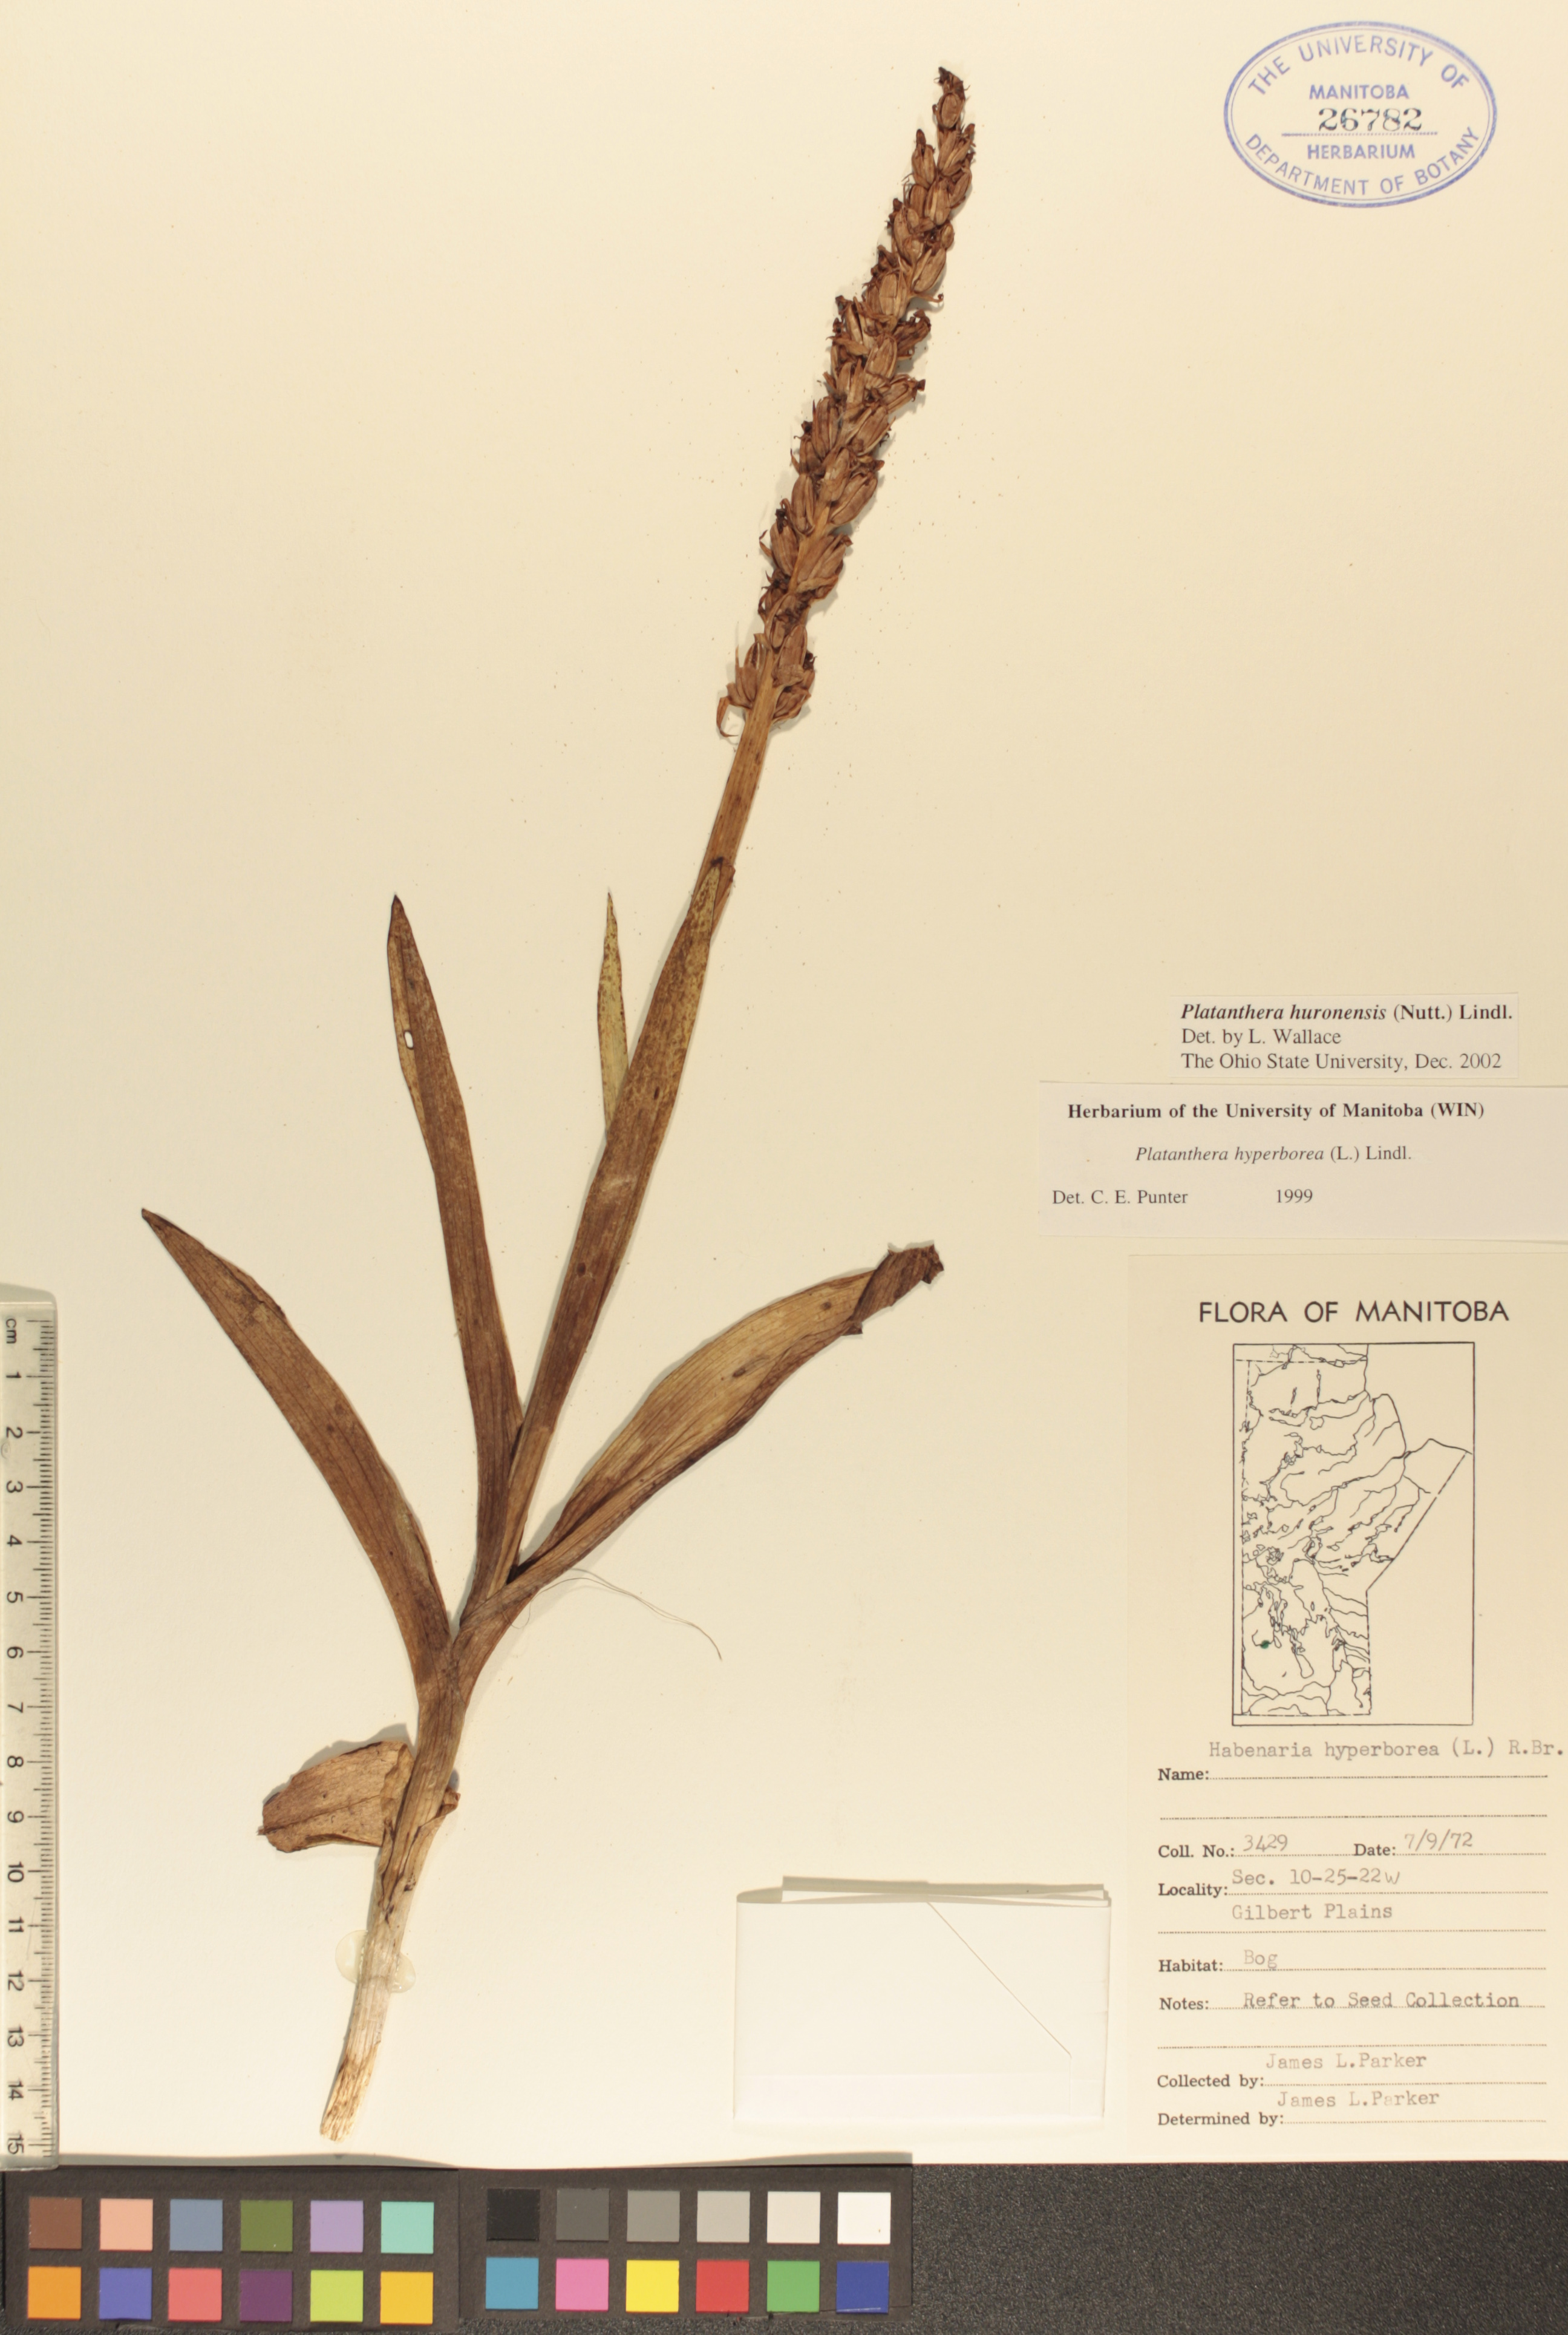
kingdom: Plantae
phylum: Tracheophyta
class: Liliopsida
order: Asparagales
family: Orchidaceae
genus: Platanthera
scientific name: Platanthera huronensis
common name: Fragrant green orchid
